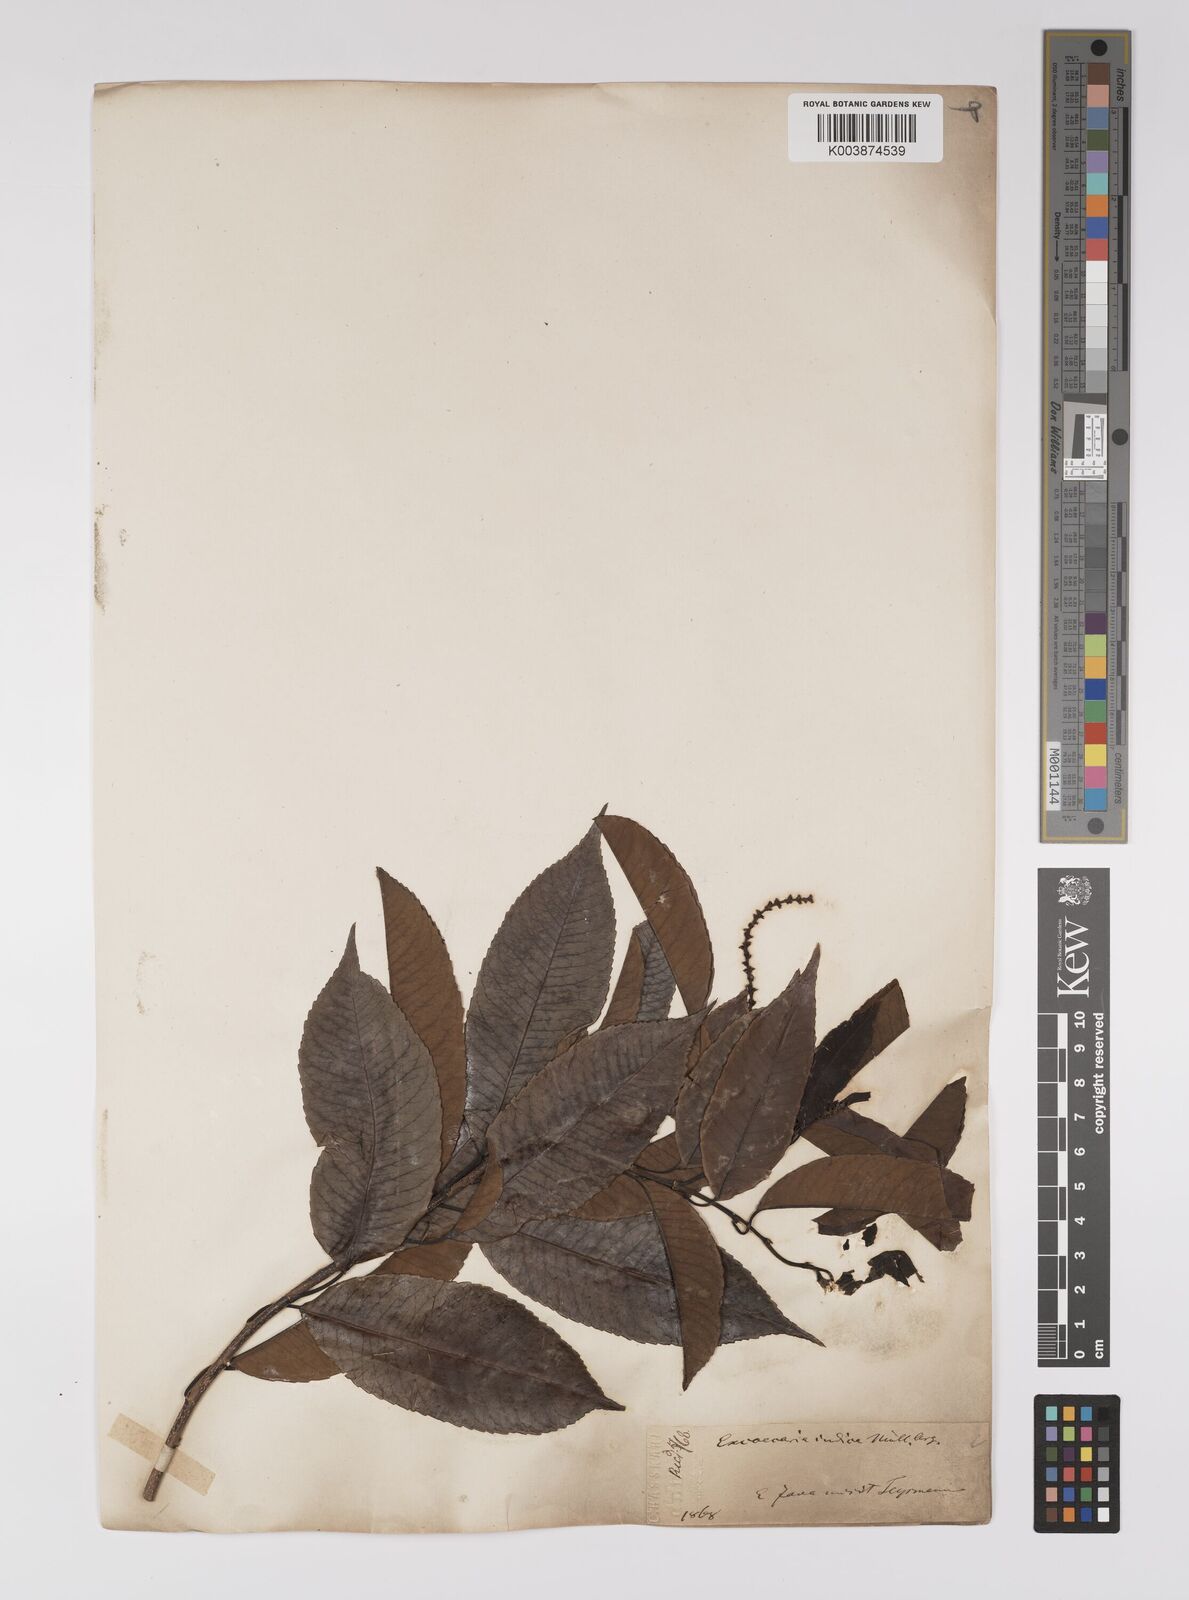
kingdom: Plantae
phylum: Tracheophyta
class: Magnoliopsida
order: Malpighiales
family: Euphorbiaceae
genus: Shirakiopsis
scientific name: Shirakiopsis indica
